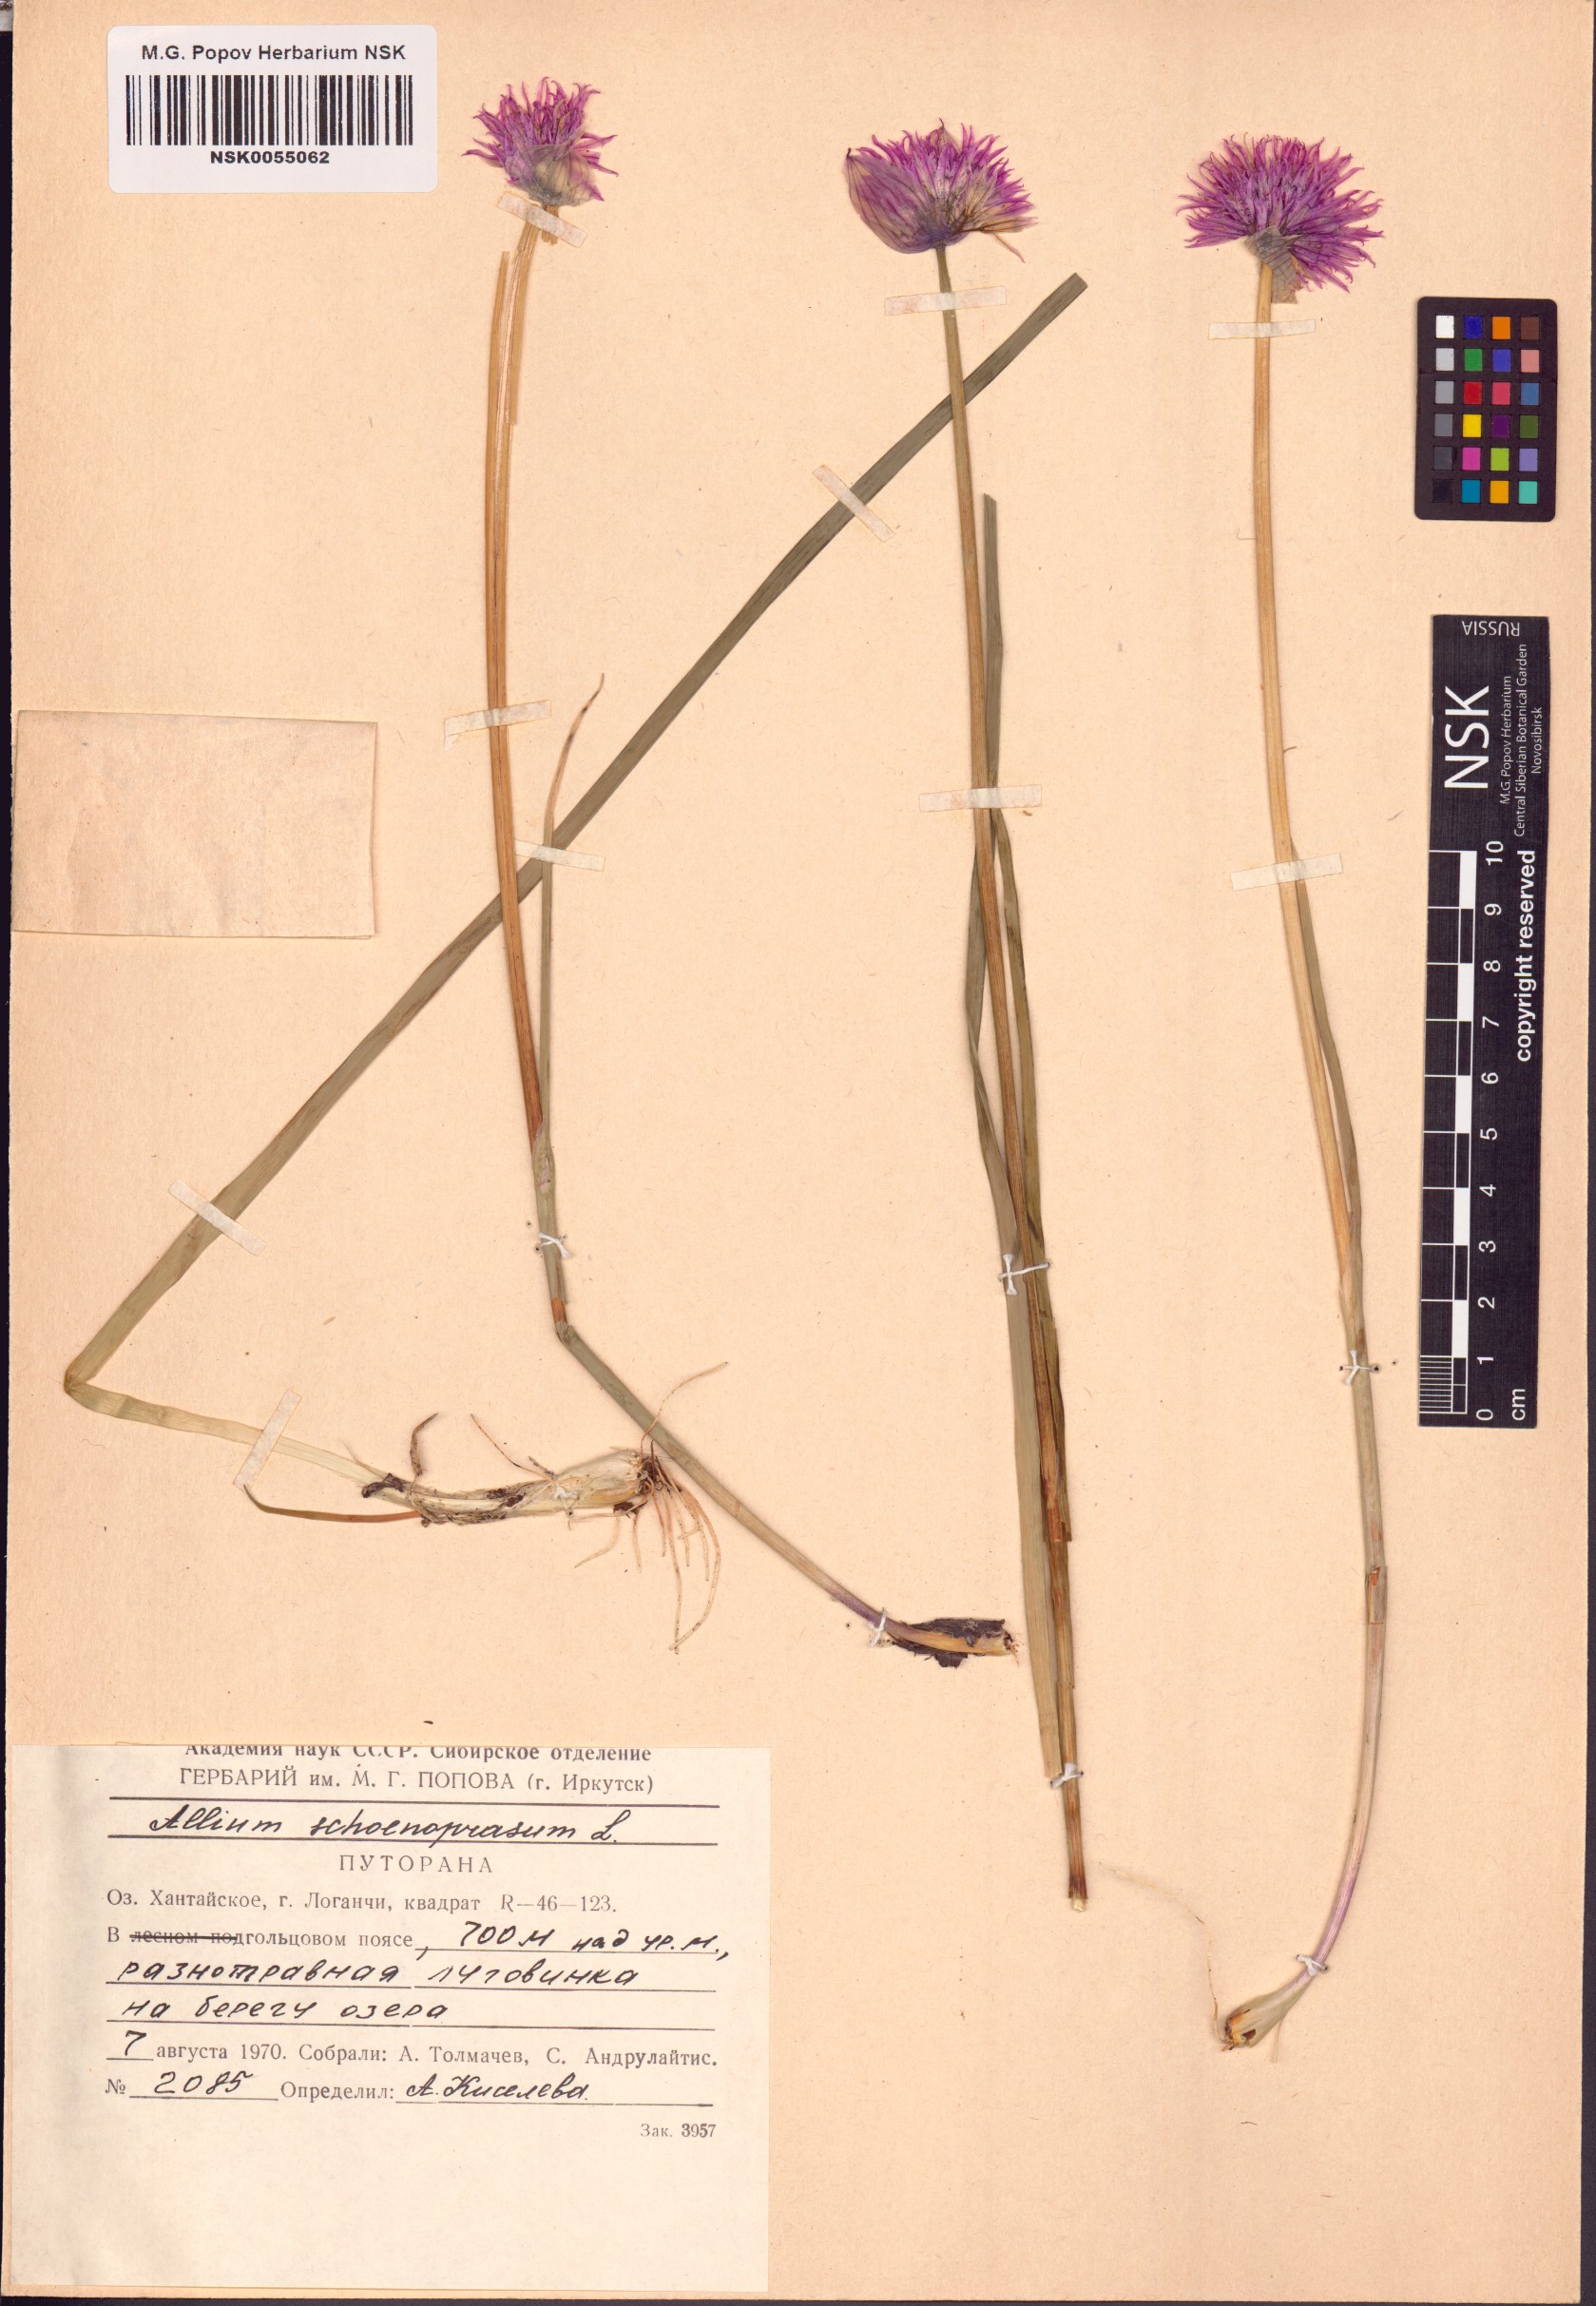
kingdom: Plantae
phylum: Tracheophyta
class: Liliopsida
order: Asparagales
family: Amaryllidaceae
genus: Allium
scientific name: Allium schoenoprasum
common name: Chives
